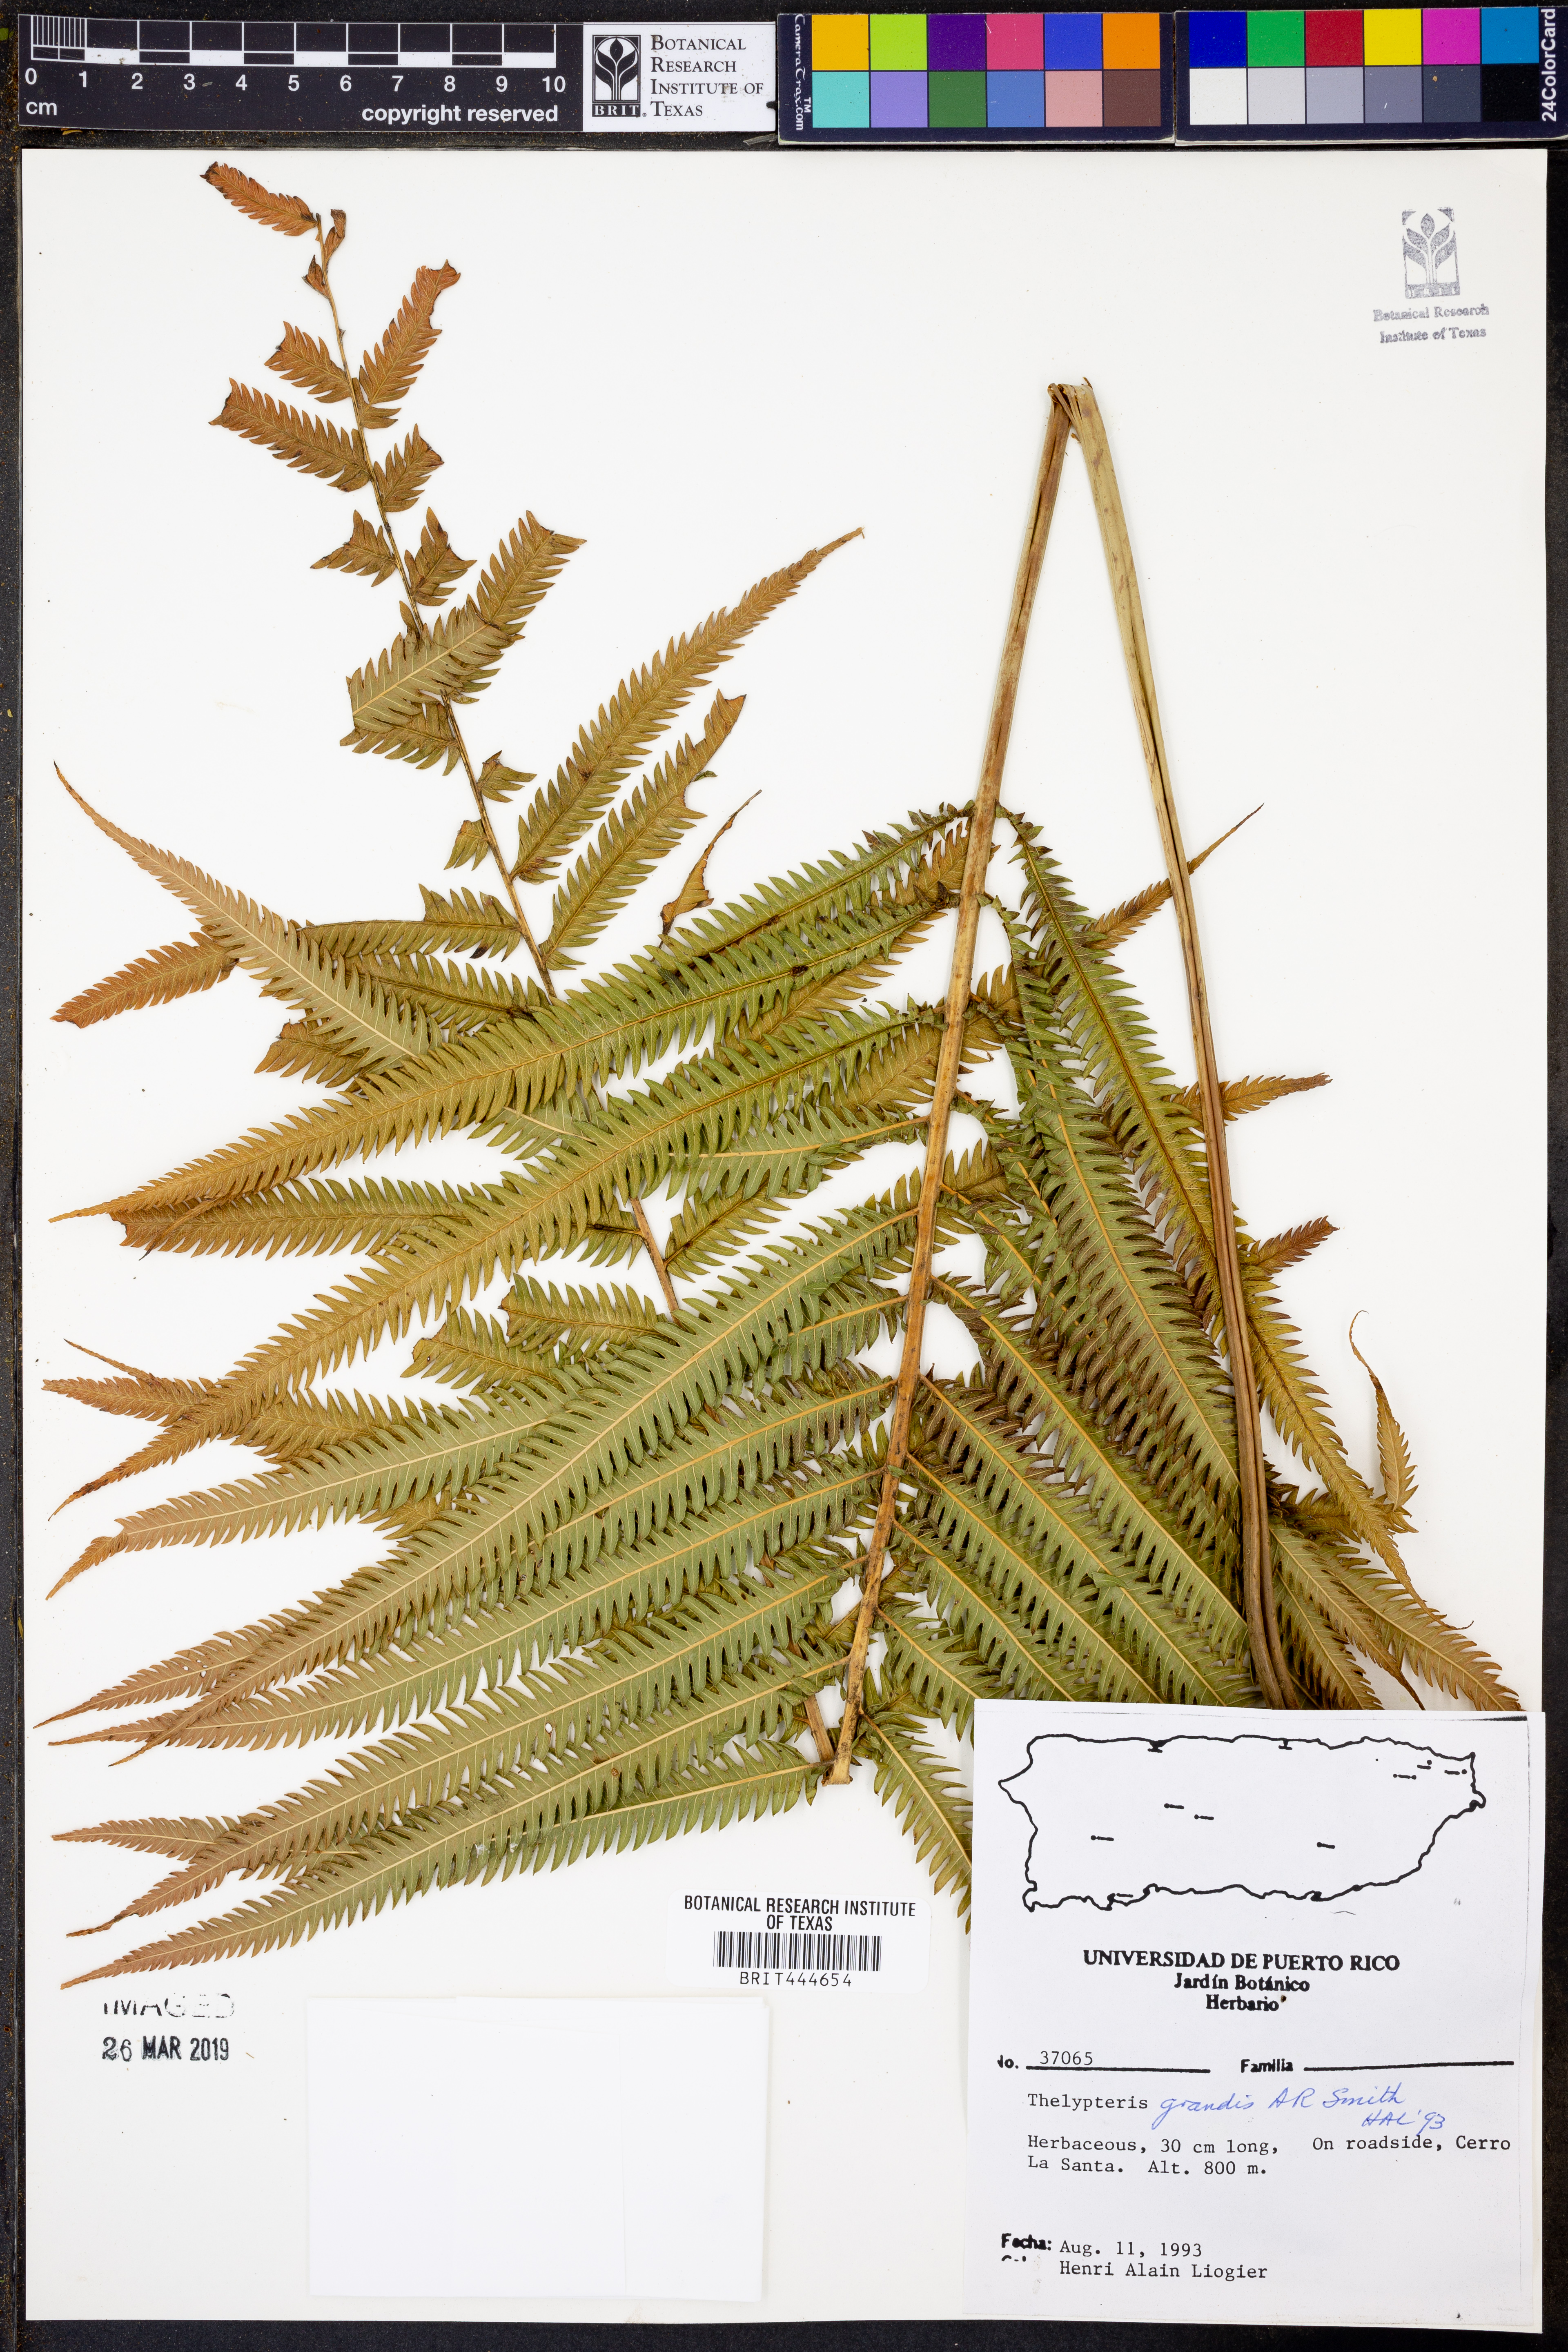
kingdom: Plantae
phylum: Tracheophyta
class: Polypodiopsida
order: Polypodiales
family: Thelypteridaceae
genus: Pelazoneuron
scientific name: Pelazoneuron abruptum
